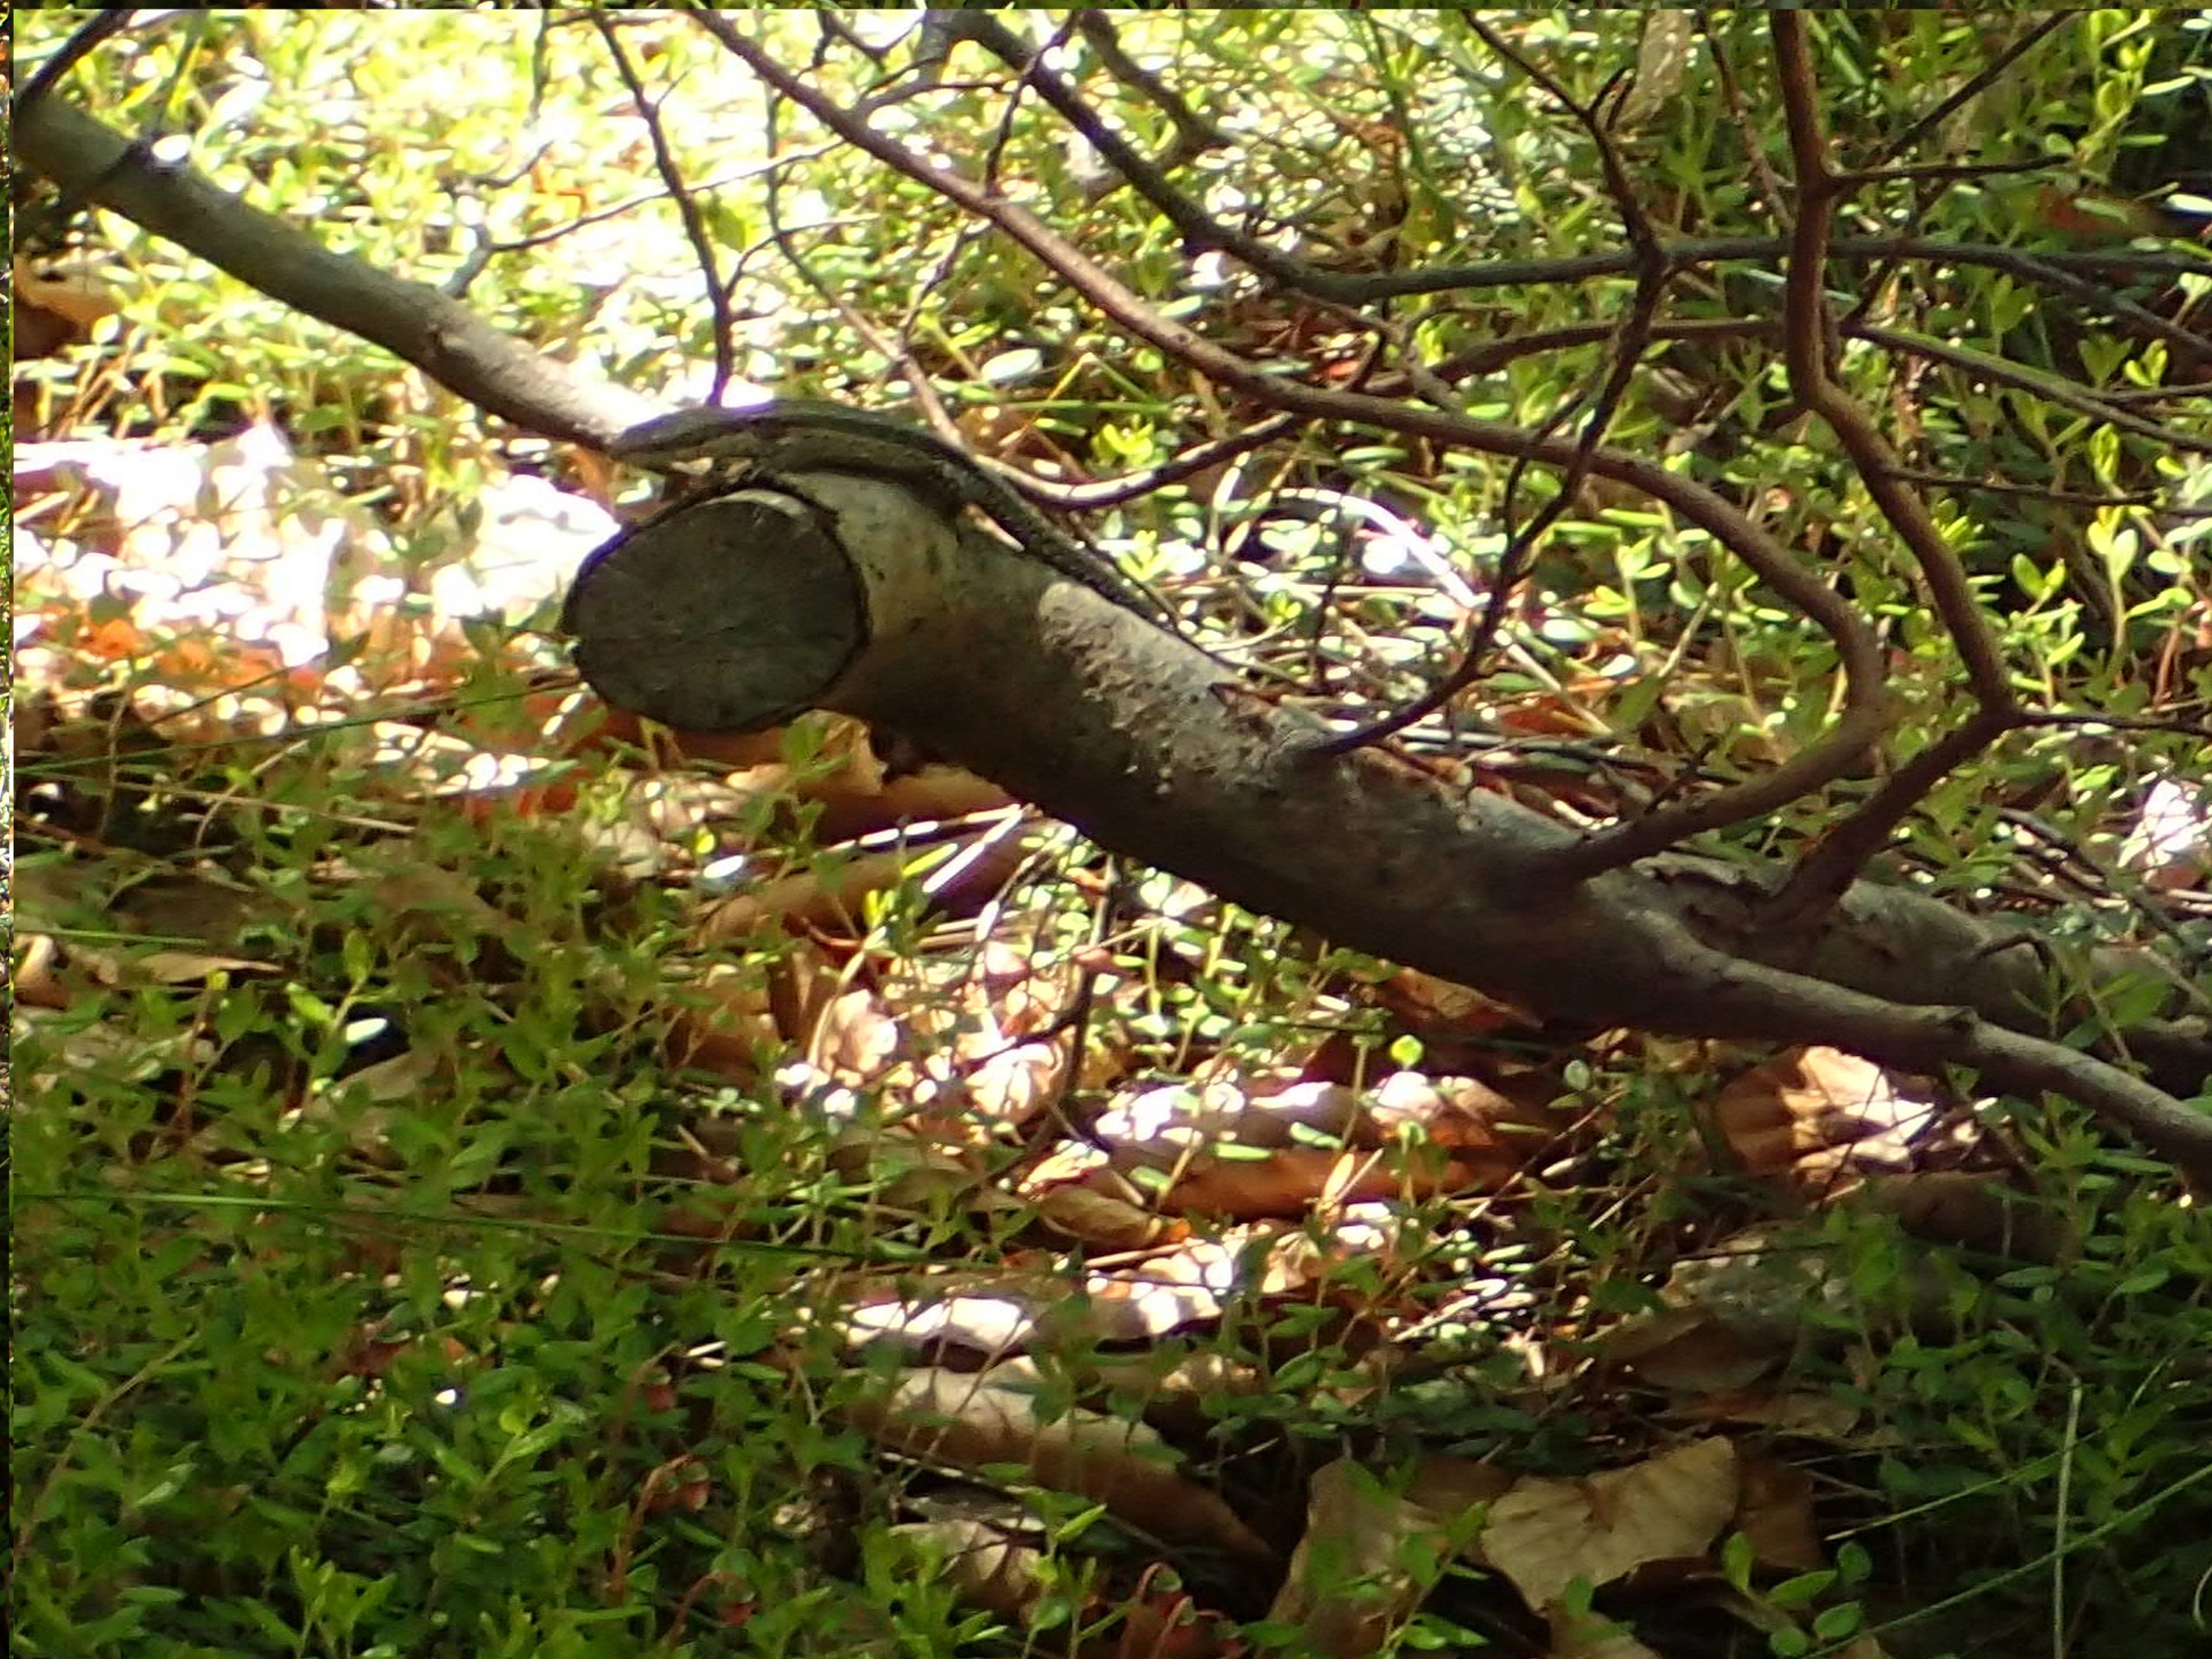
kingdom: Animalia
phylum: Chordata
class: Squamata
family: Lacertidae
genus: Zootoca
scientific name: Zootoca vivipara
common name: Skovfirben
